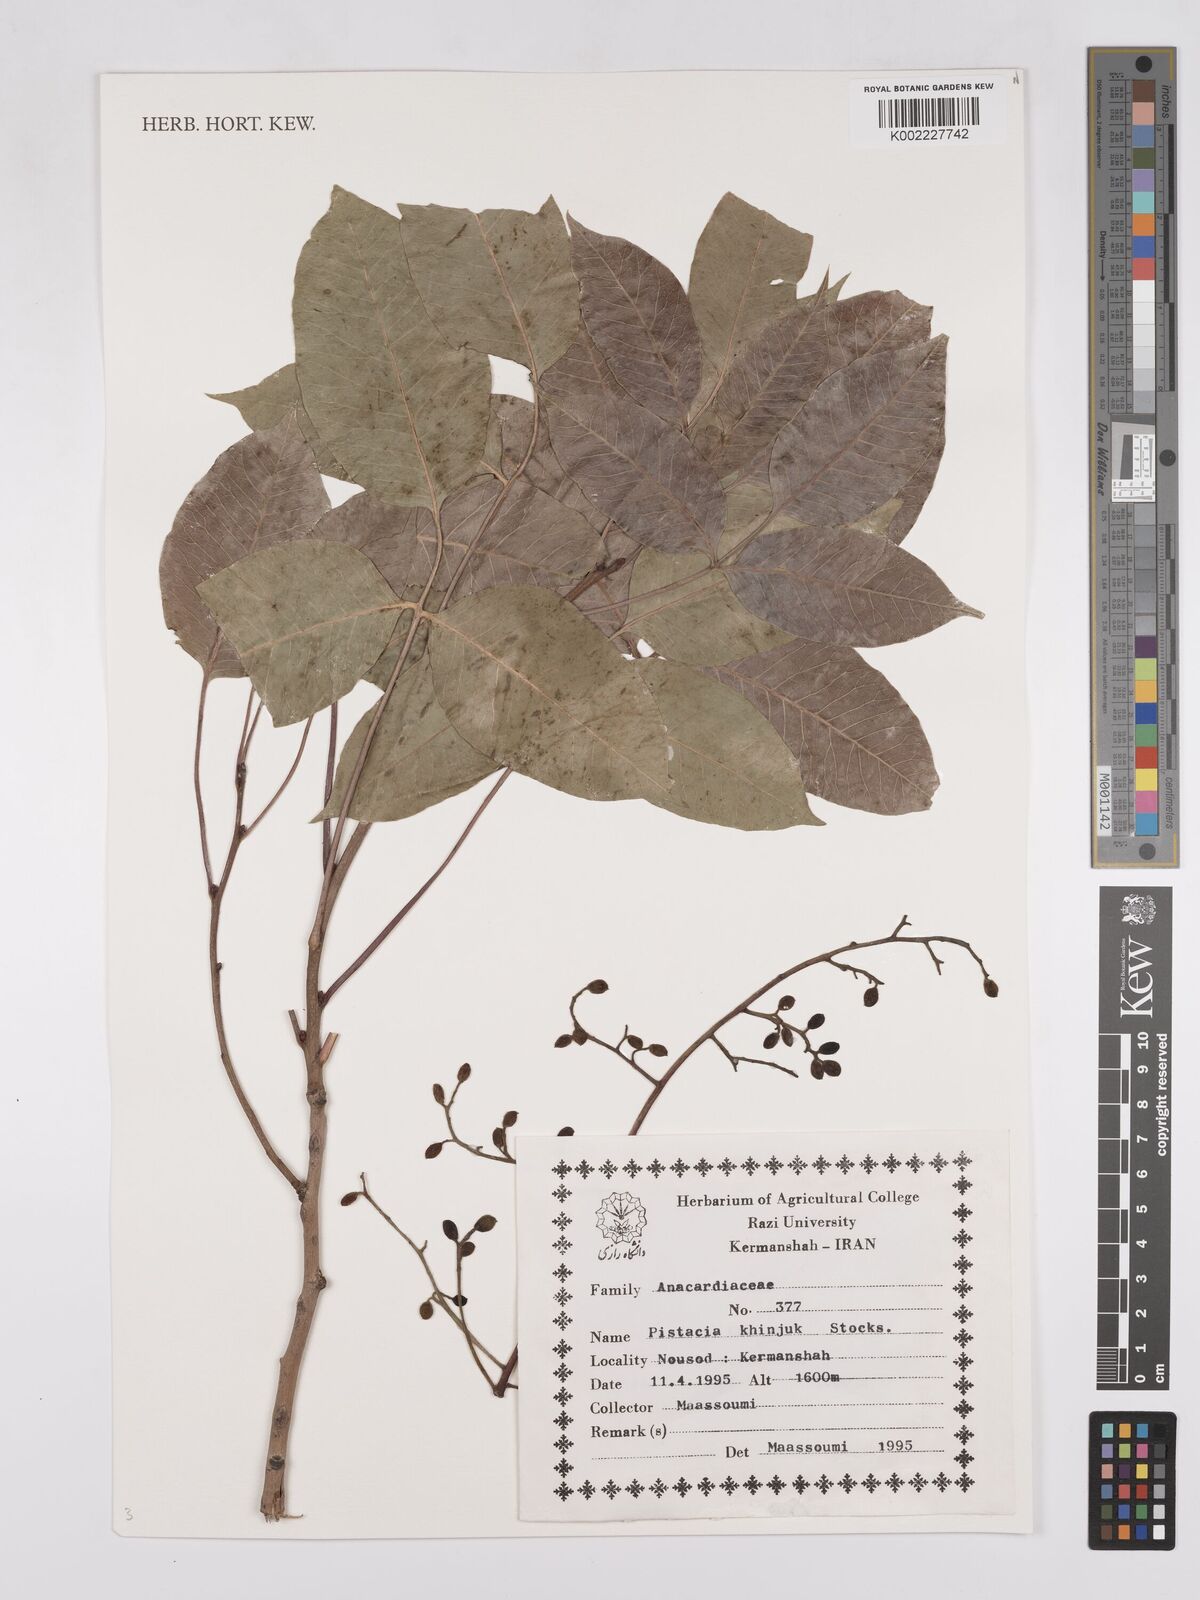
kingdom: Plantae
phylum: Tracheophyta
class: Magnoliopsida
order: Sapindales
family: Anacardiaceae
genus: Pistacia
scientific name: Pistacia khinjuk
